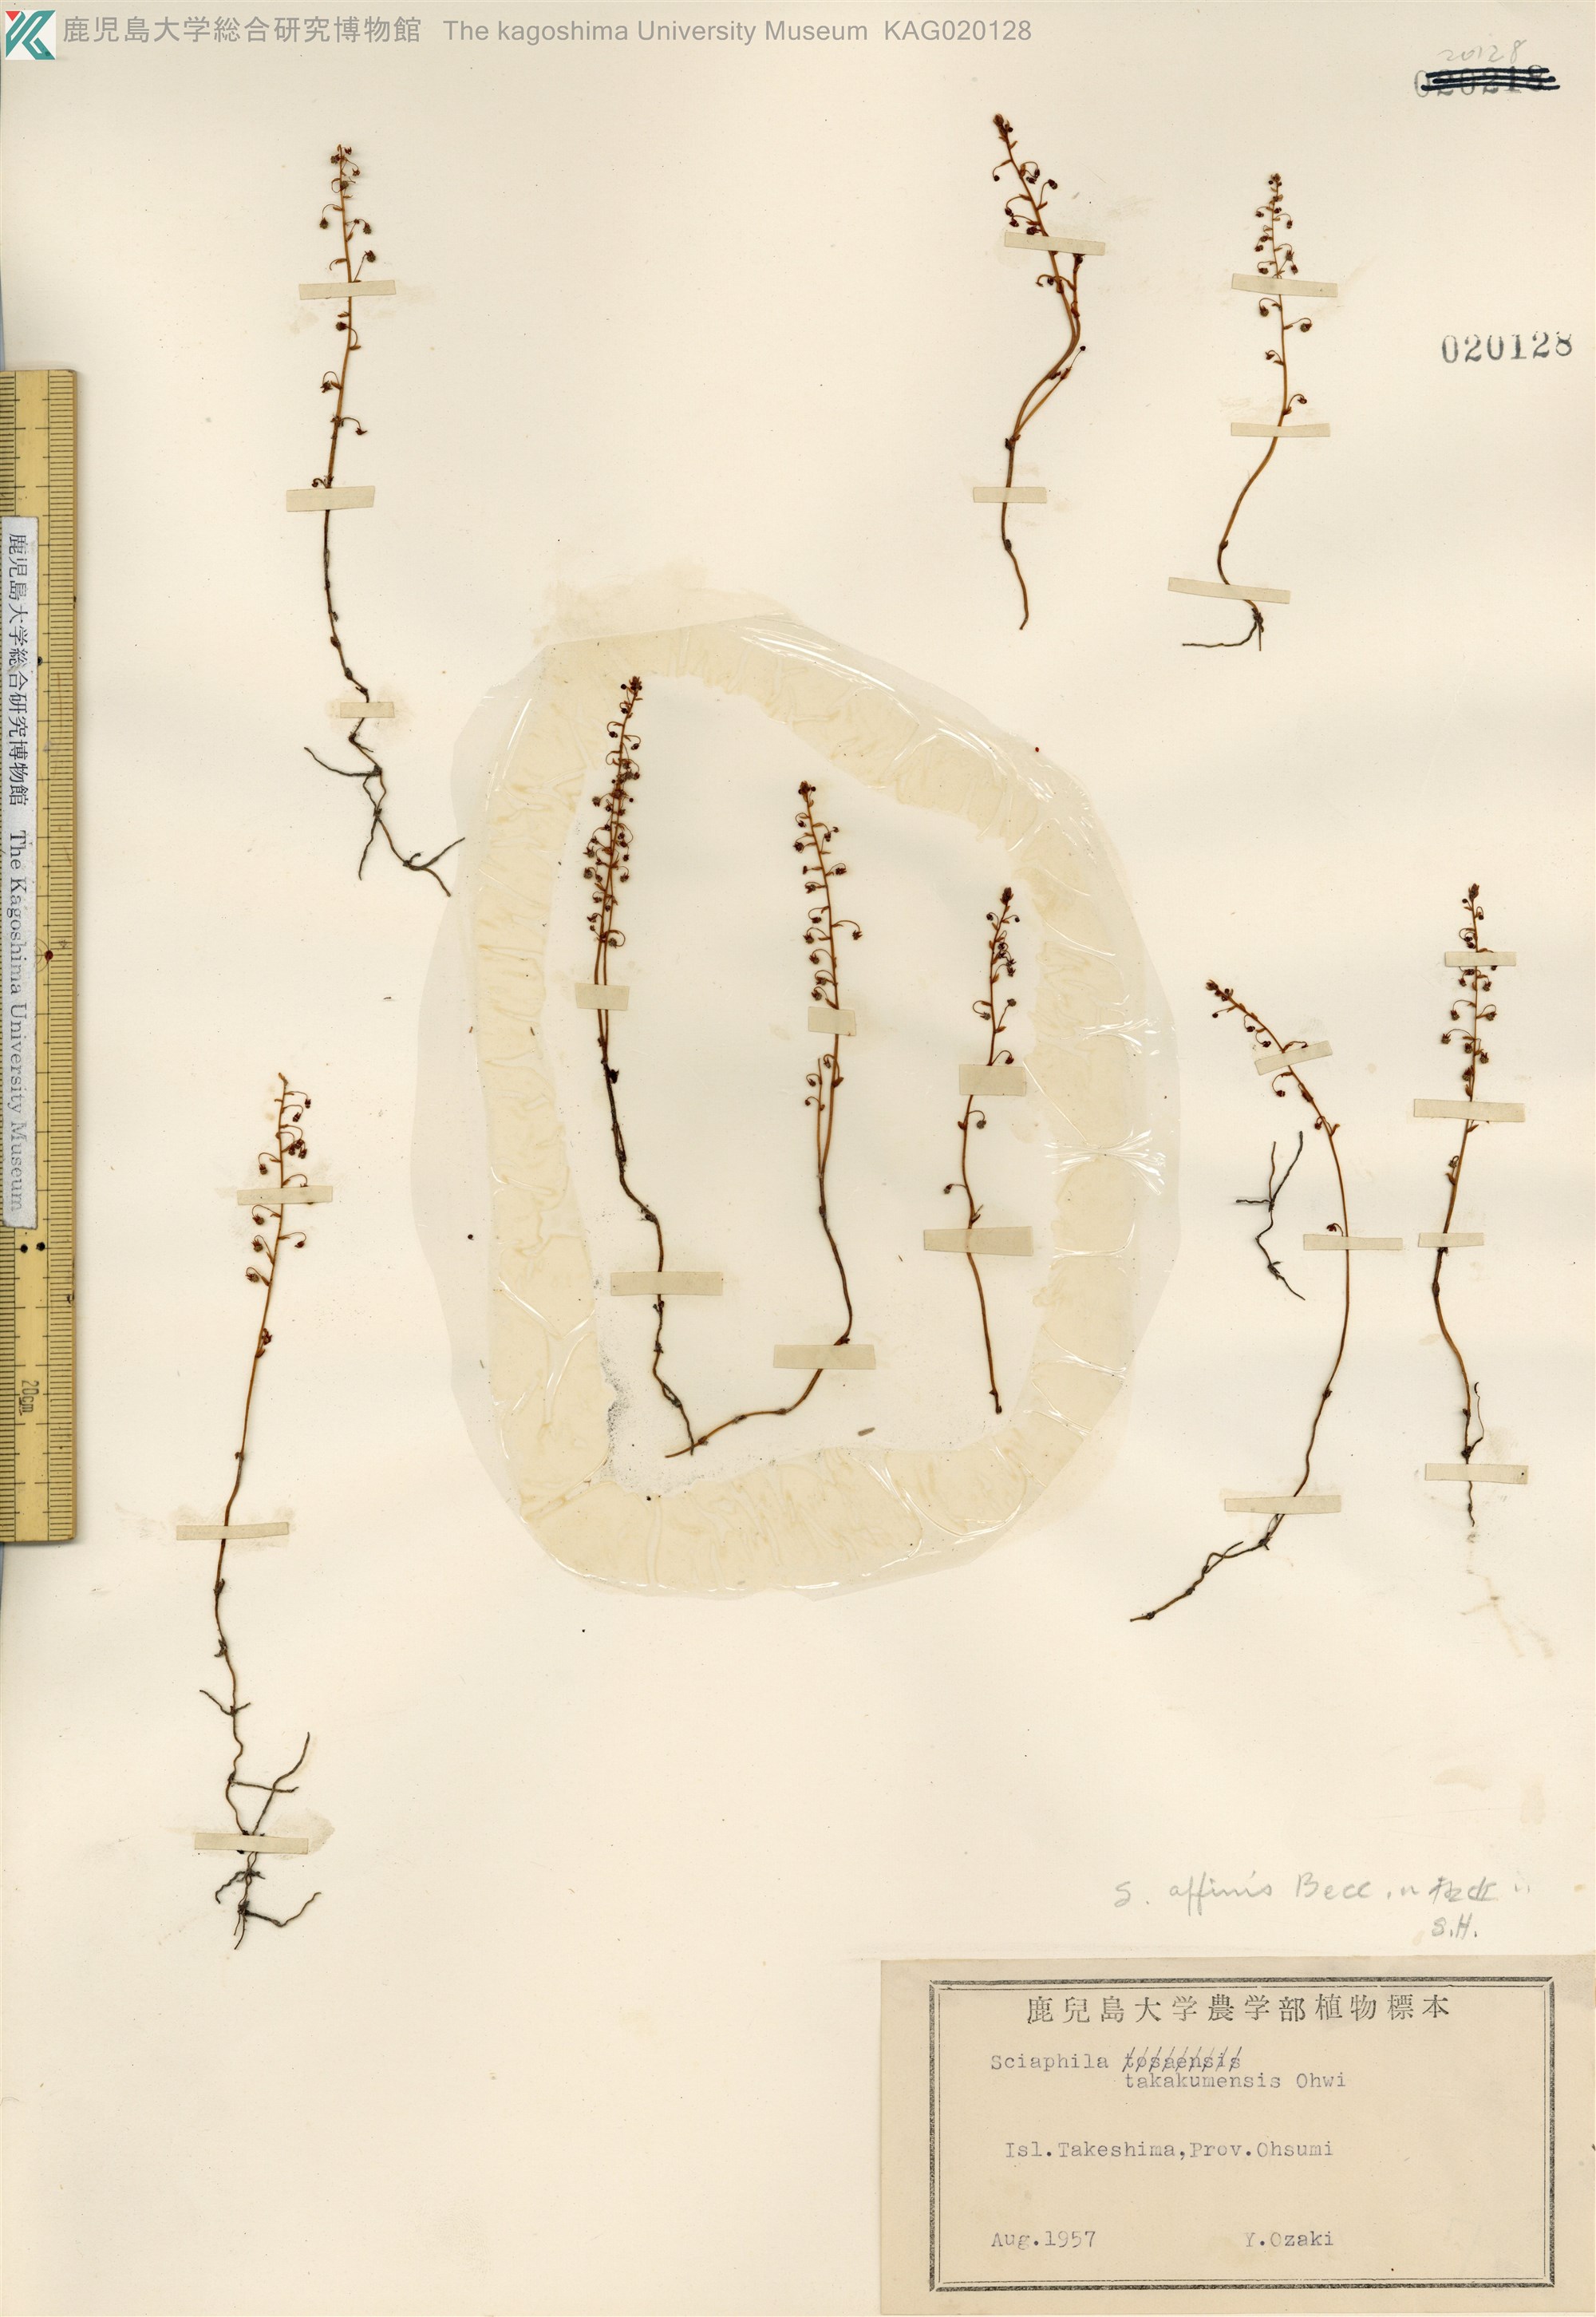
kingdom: Plantae
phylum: Tracheophyta
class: Liliopsida
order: Pandanales
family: Triuridaceae
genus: Sciaphila
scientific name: Sciaphila tenella
